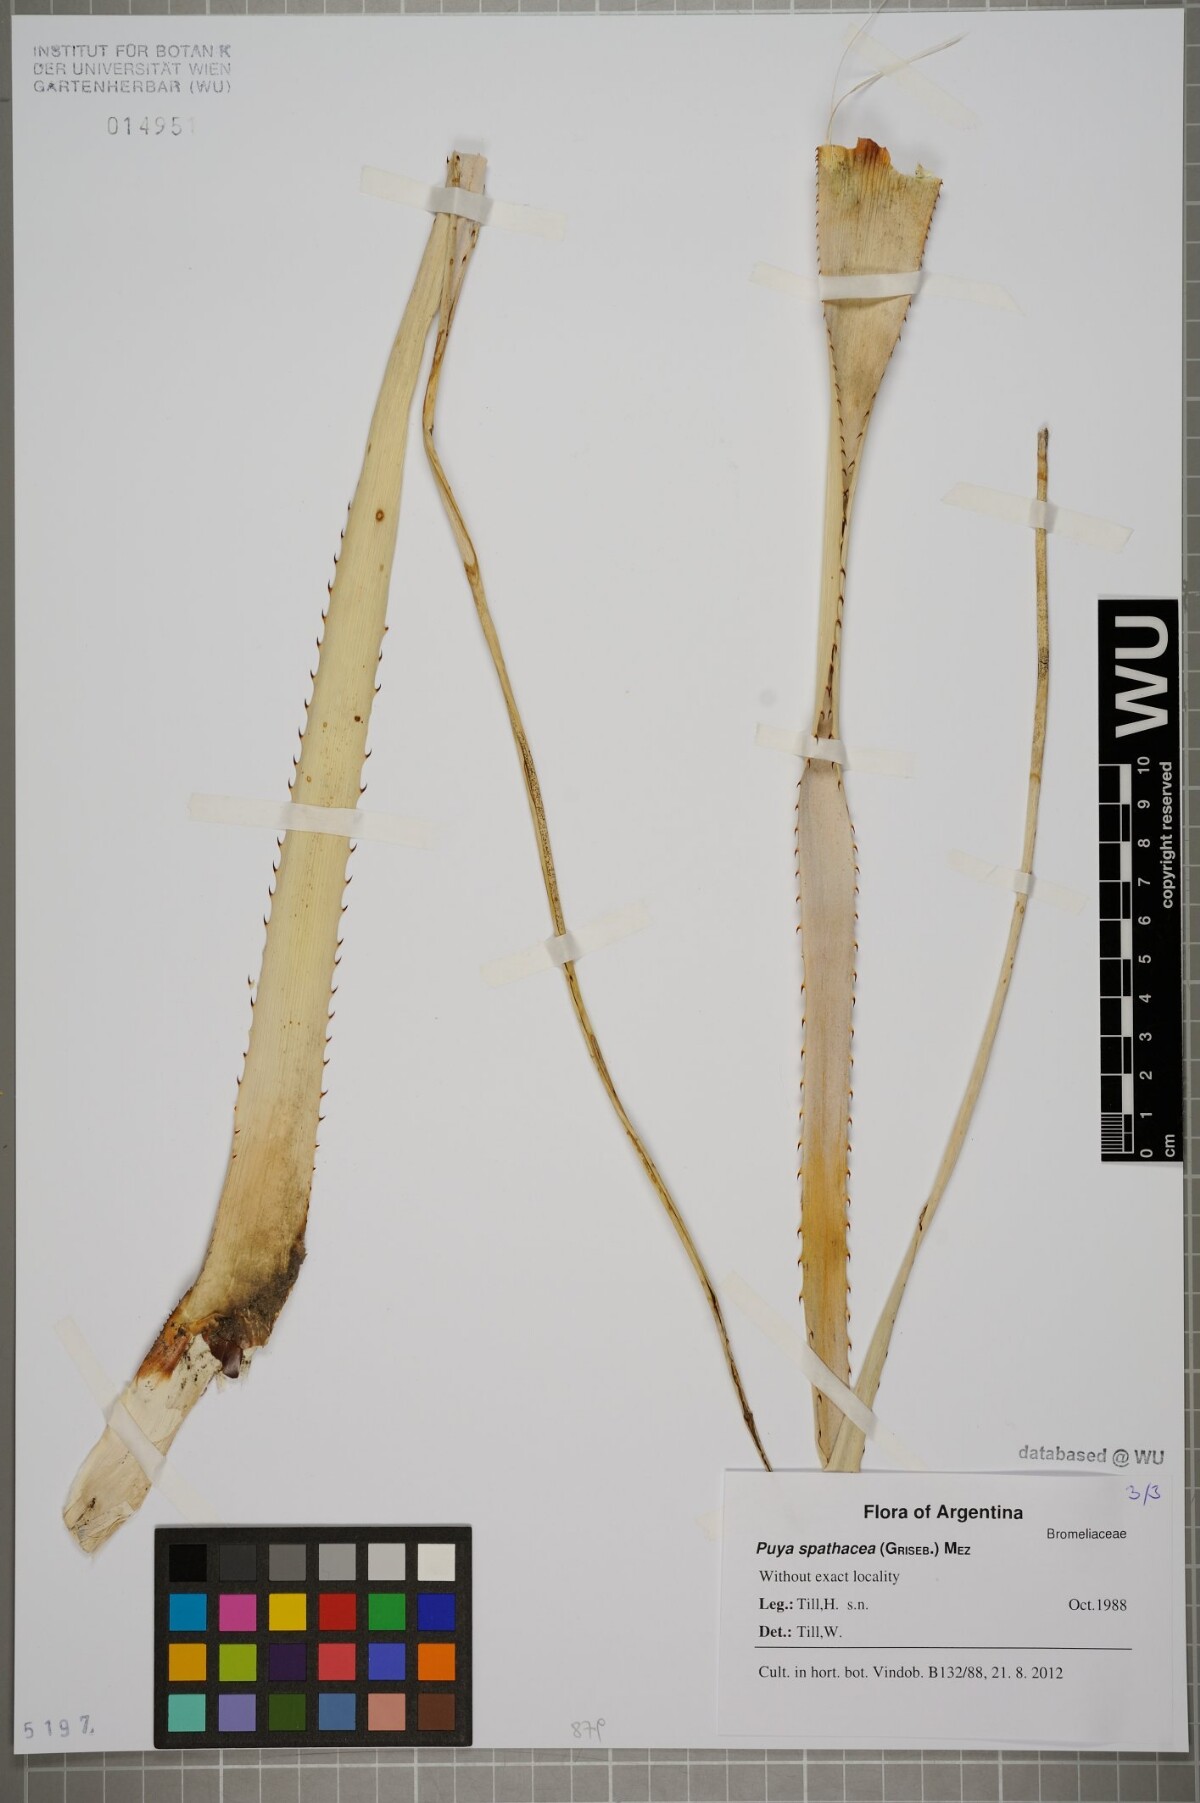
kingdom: Plantae
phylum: Tracheophyta
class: Liliopsida
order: Poales
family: Bromeliaceae
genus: Puya
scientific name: Puya spathacea
